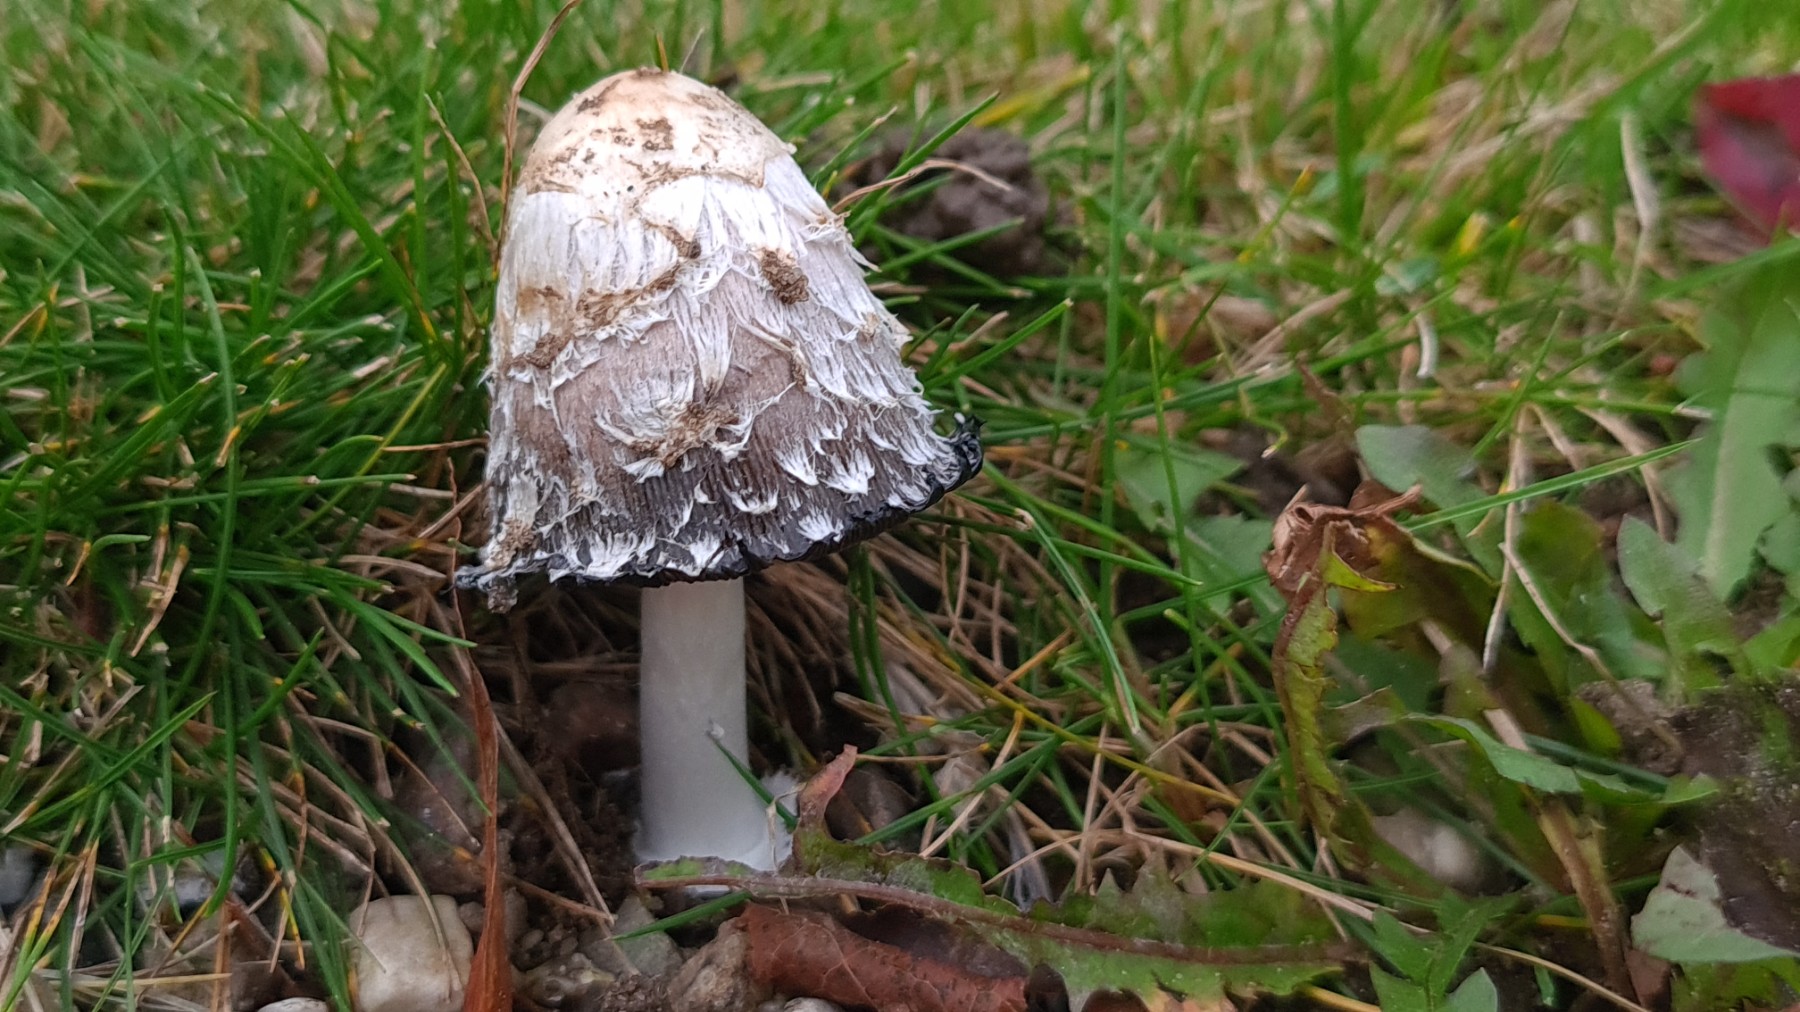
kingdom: Fungi
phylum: Basidiomycota
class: Agaricomycetes
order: Agaricales
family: Agaricaceae
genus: Coprinus
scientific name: Coprinus comatus
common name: stor parykhat
